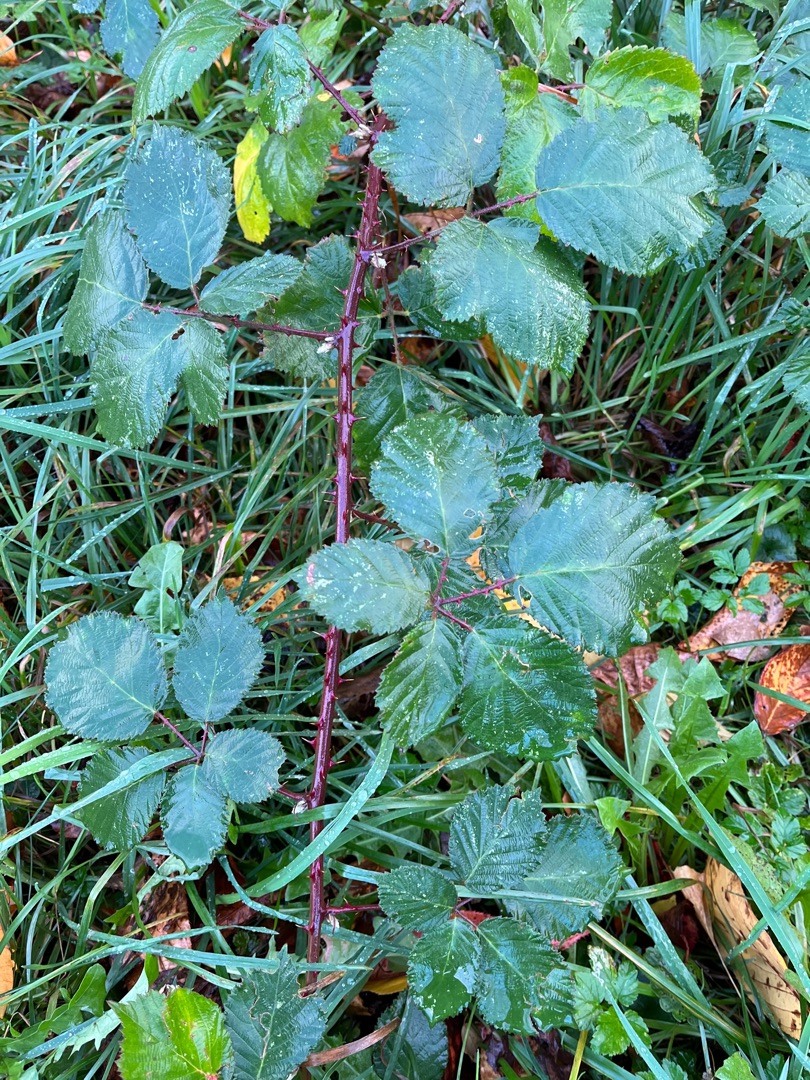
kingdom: Plantae
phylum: Tracheophyta
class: Magnoliopsida
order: Rosales
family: Rosaceae
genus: Rubus
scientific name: Rubus armeniacus
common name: Armensk brombær
